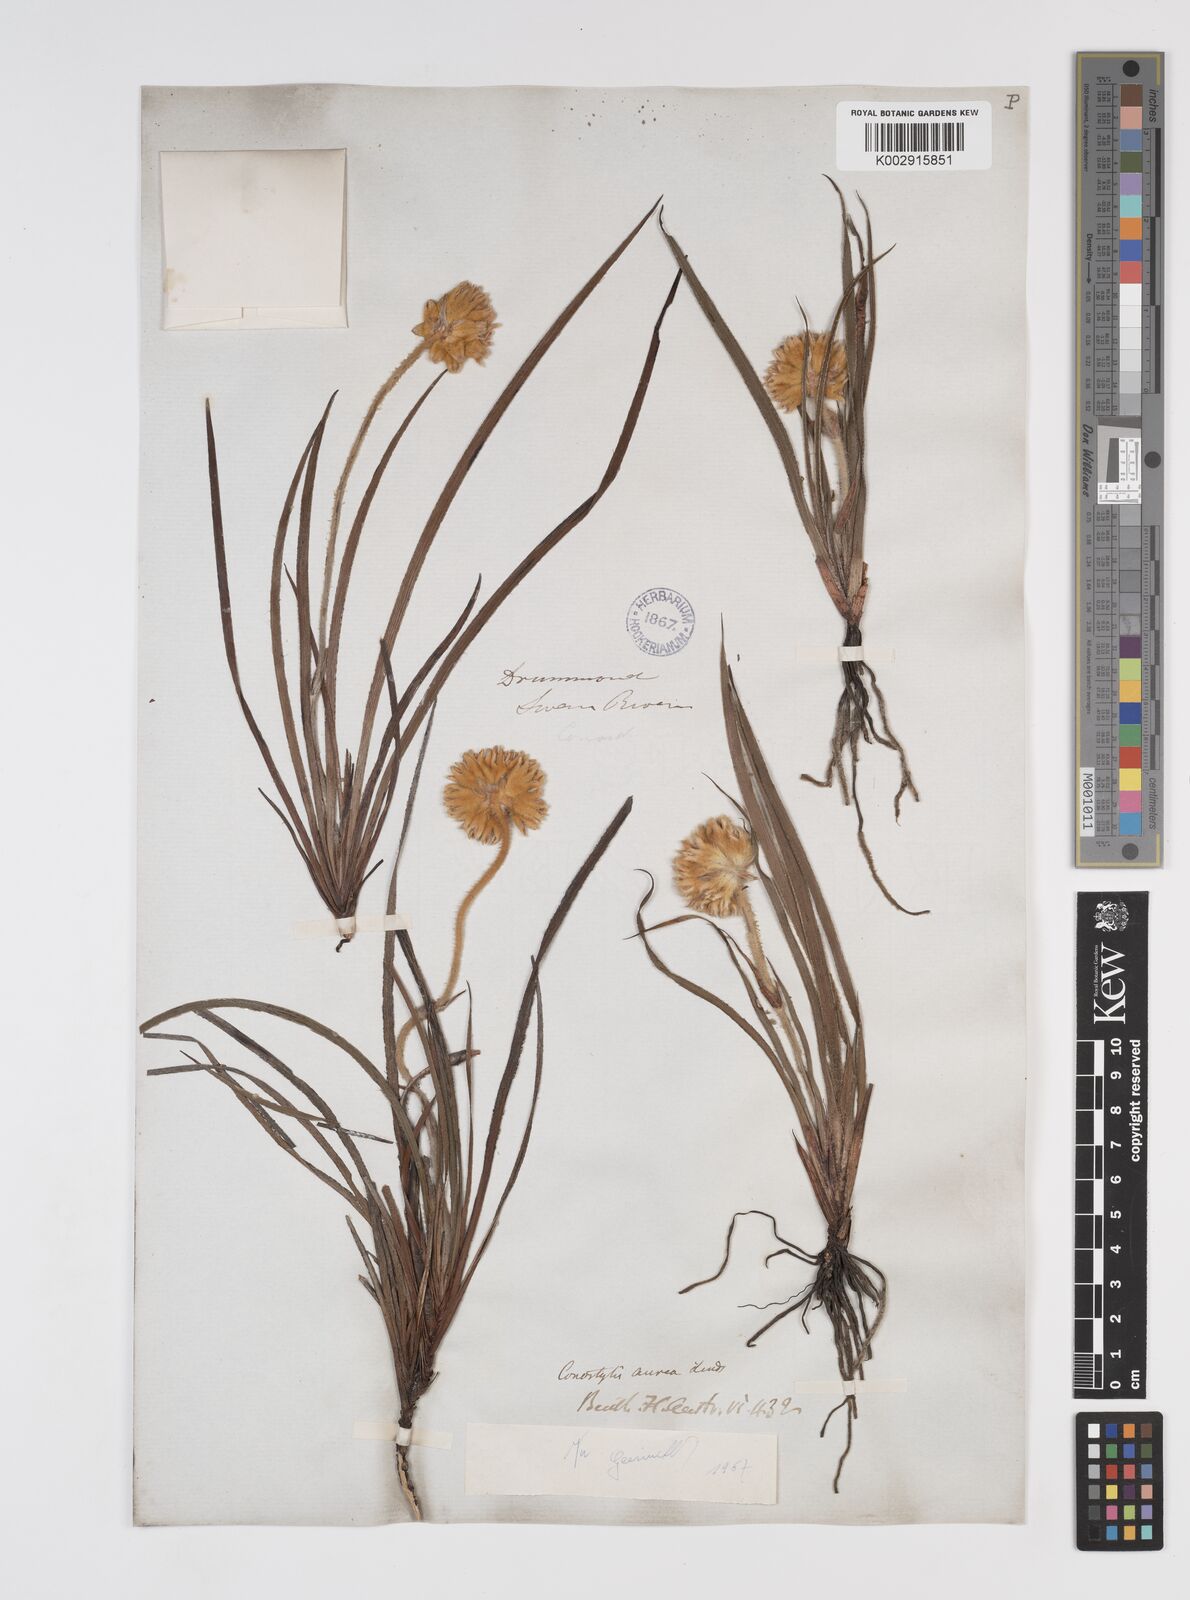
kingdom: Plantae
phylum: Tracheophyta
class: Liliopsida
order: Commelinales
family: Haemodoraceae
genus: Conostylis
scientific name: Conostylis aurea
